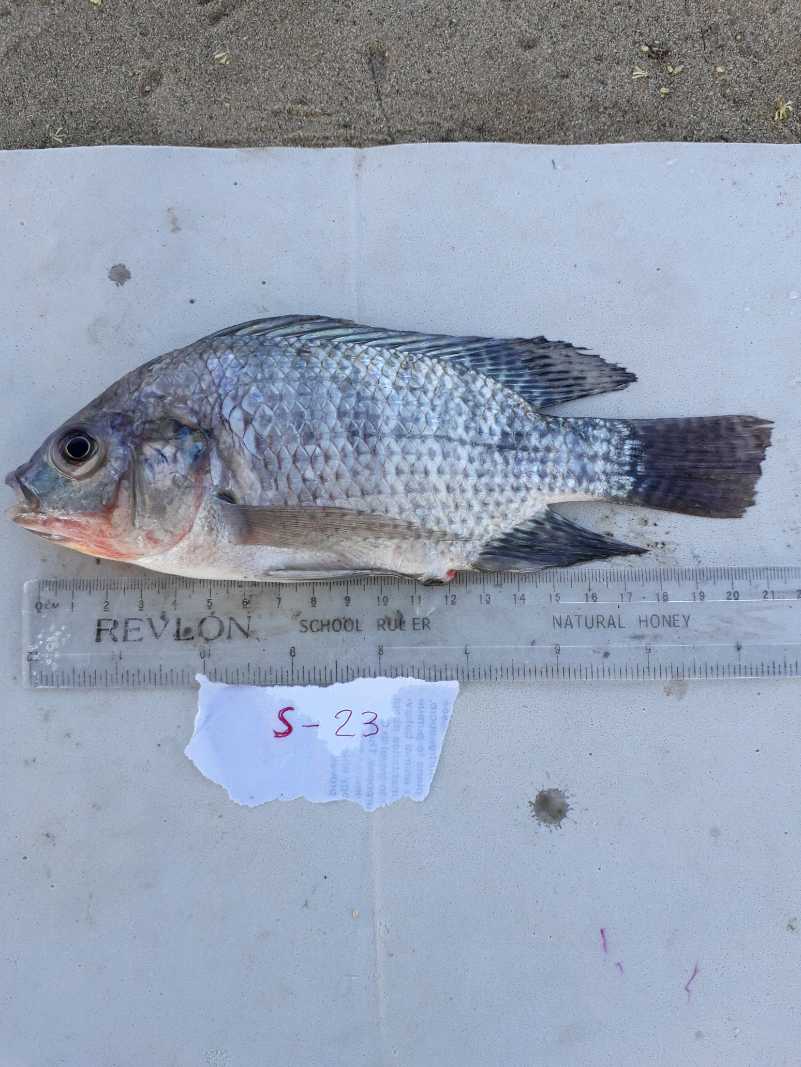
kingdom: Animalia
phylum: Chordata
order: Perciformes
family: Cichlidae
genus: Oreochromis
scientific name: Oreochromis niloticus
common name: Nile tilapia
